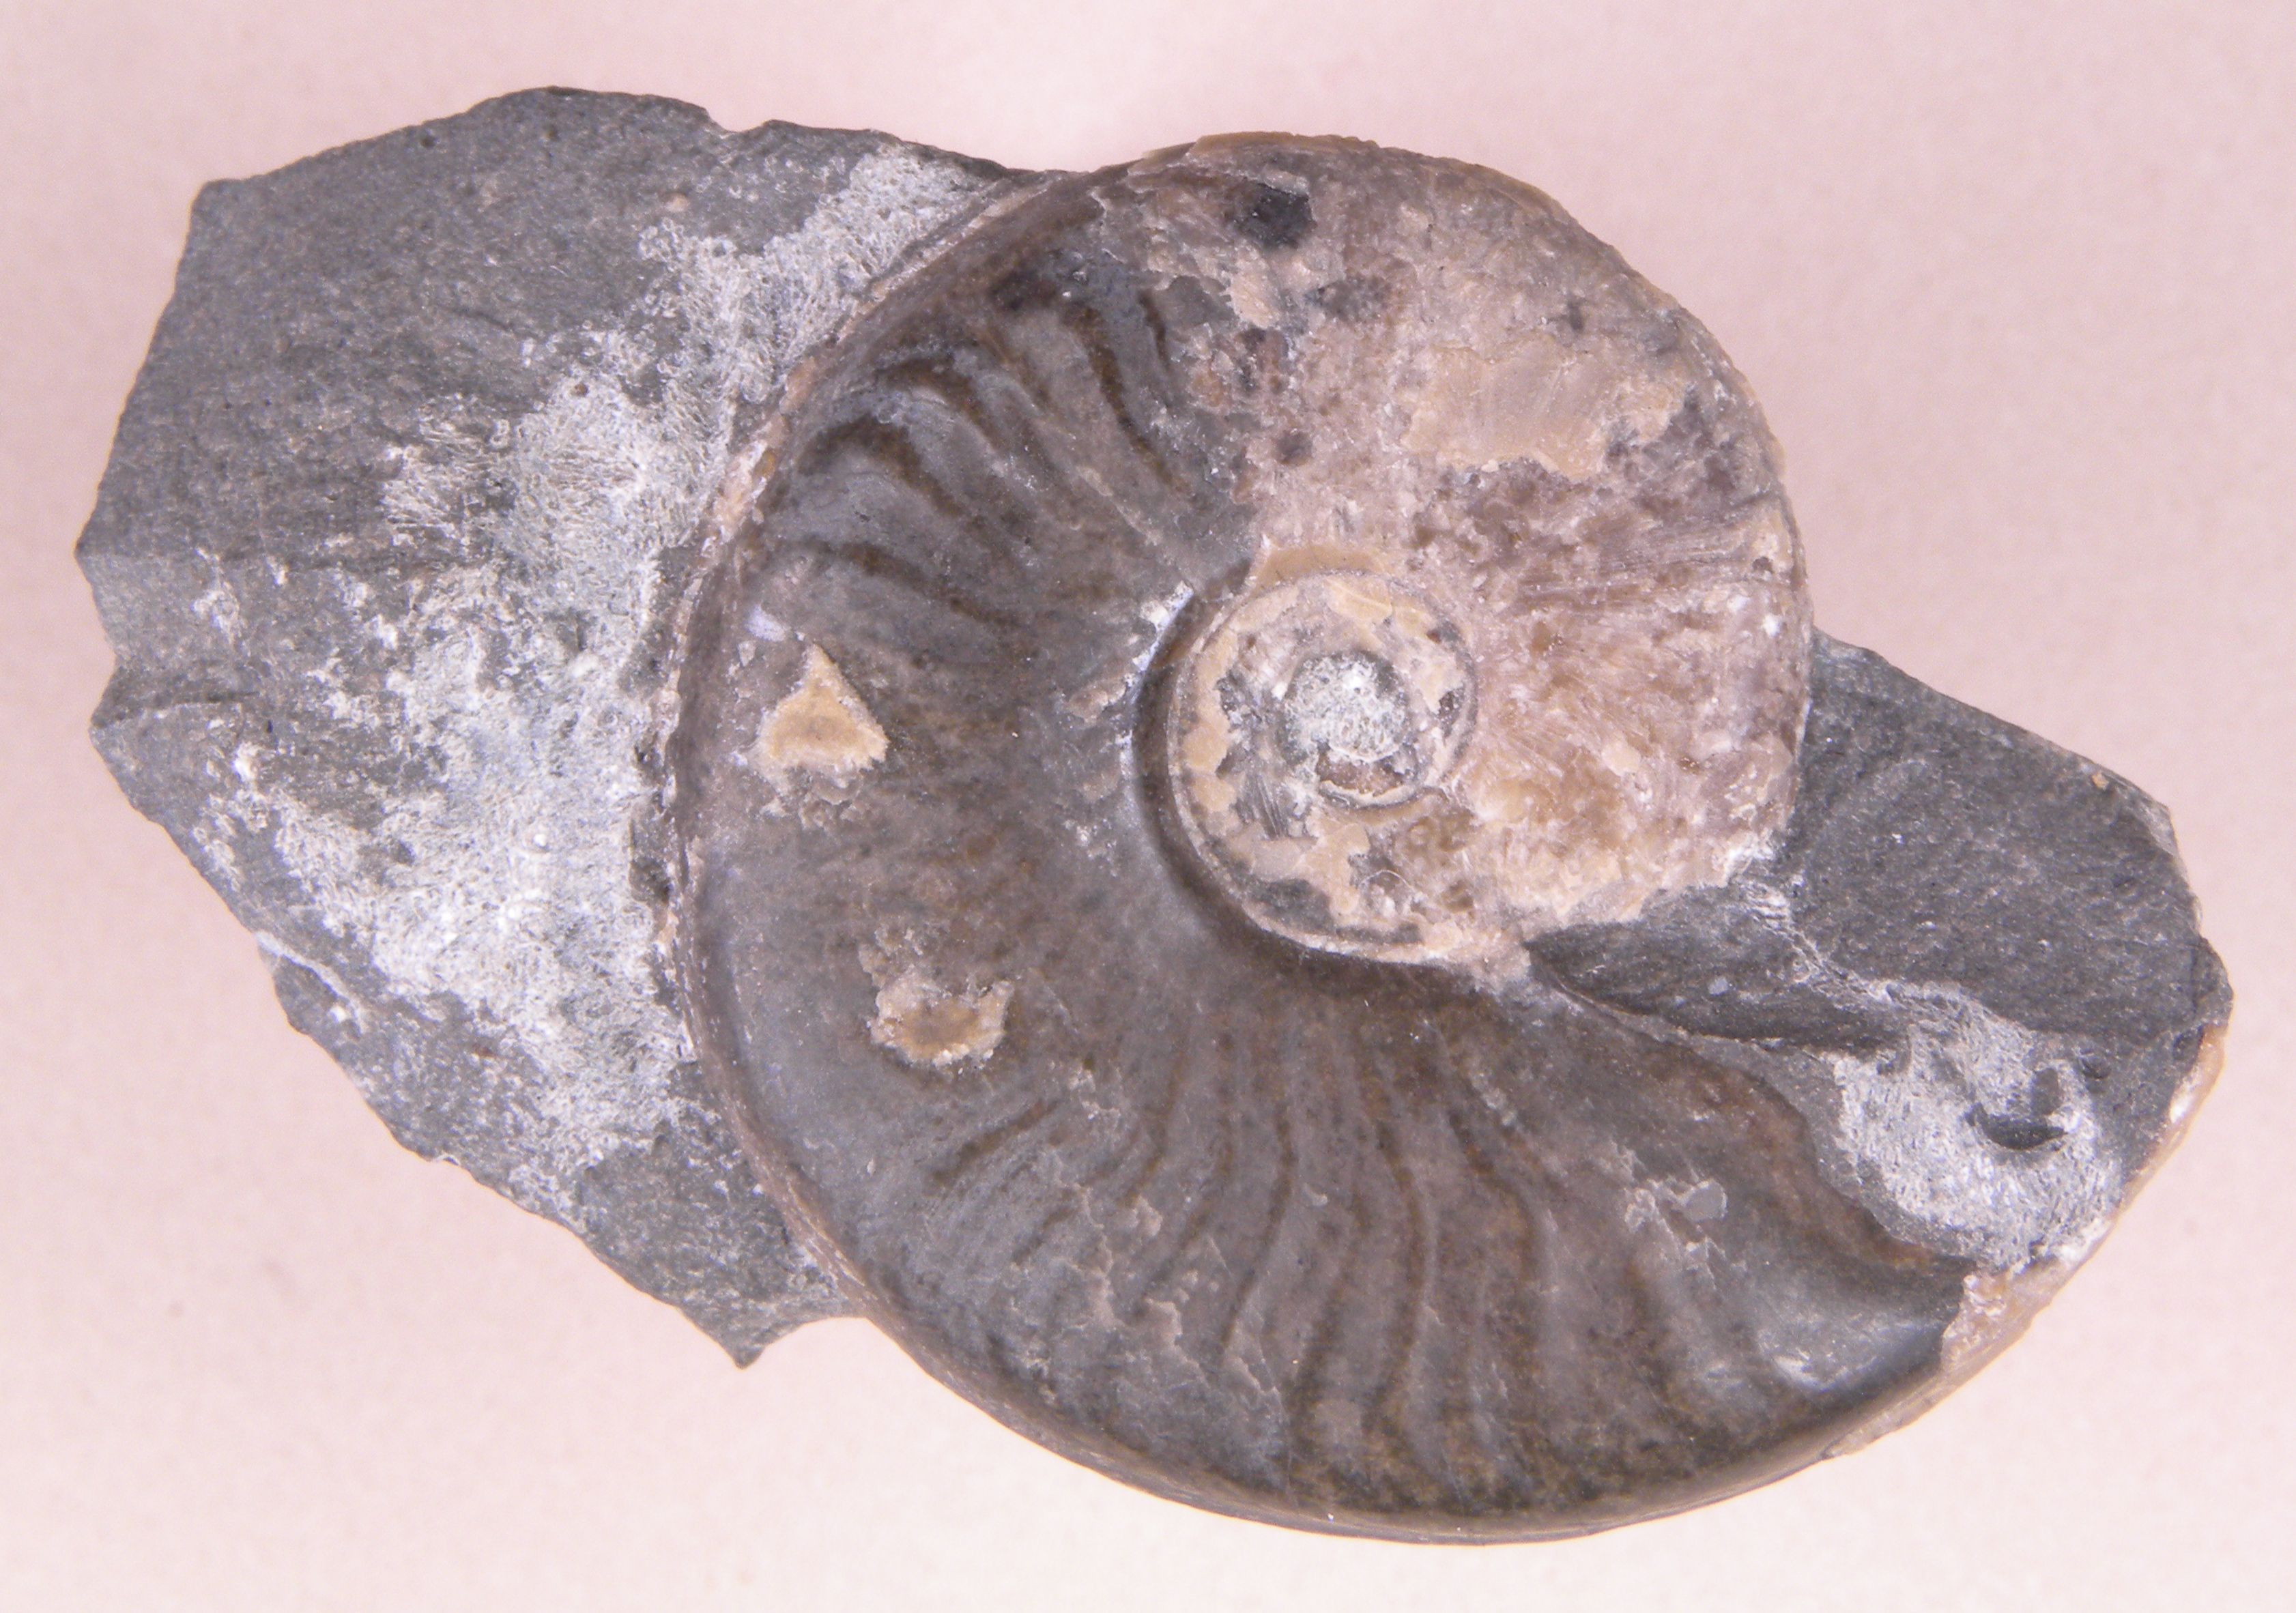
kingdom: Animalia
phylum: Mollusca
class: Cephalopoda
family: Hildoceratidae
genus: Eleganticeras
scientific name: Eleganticeras
